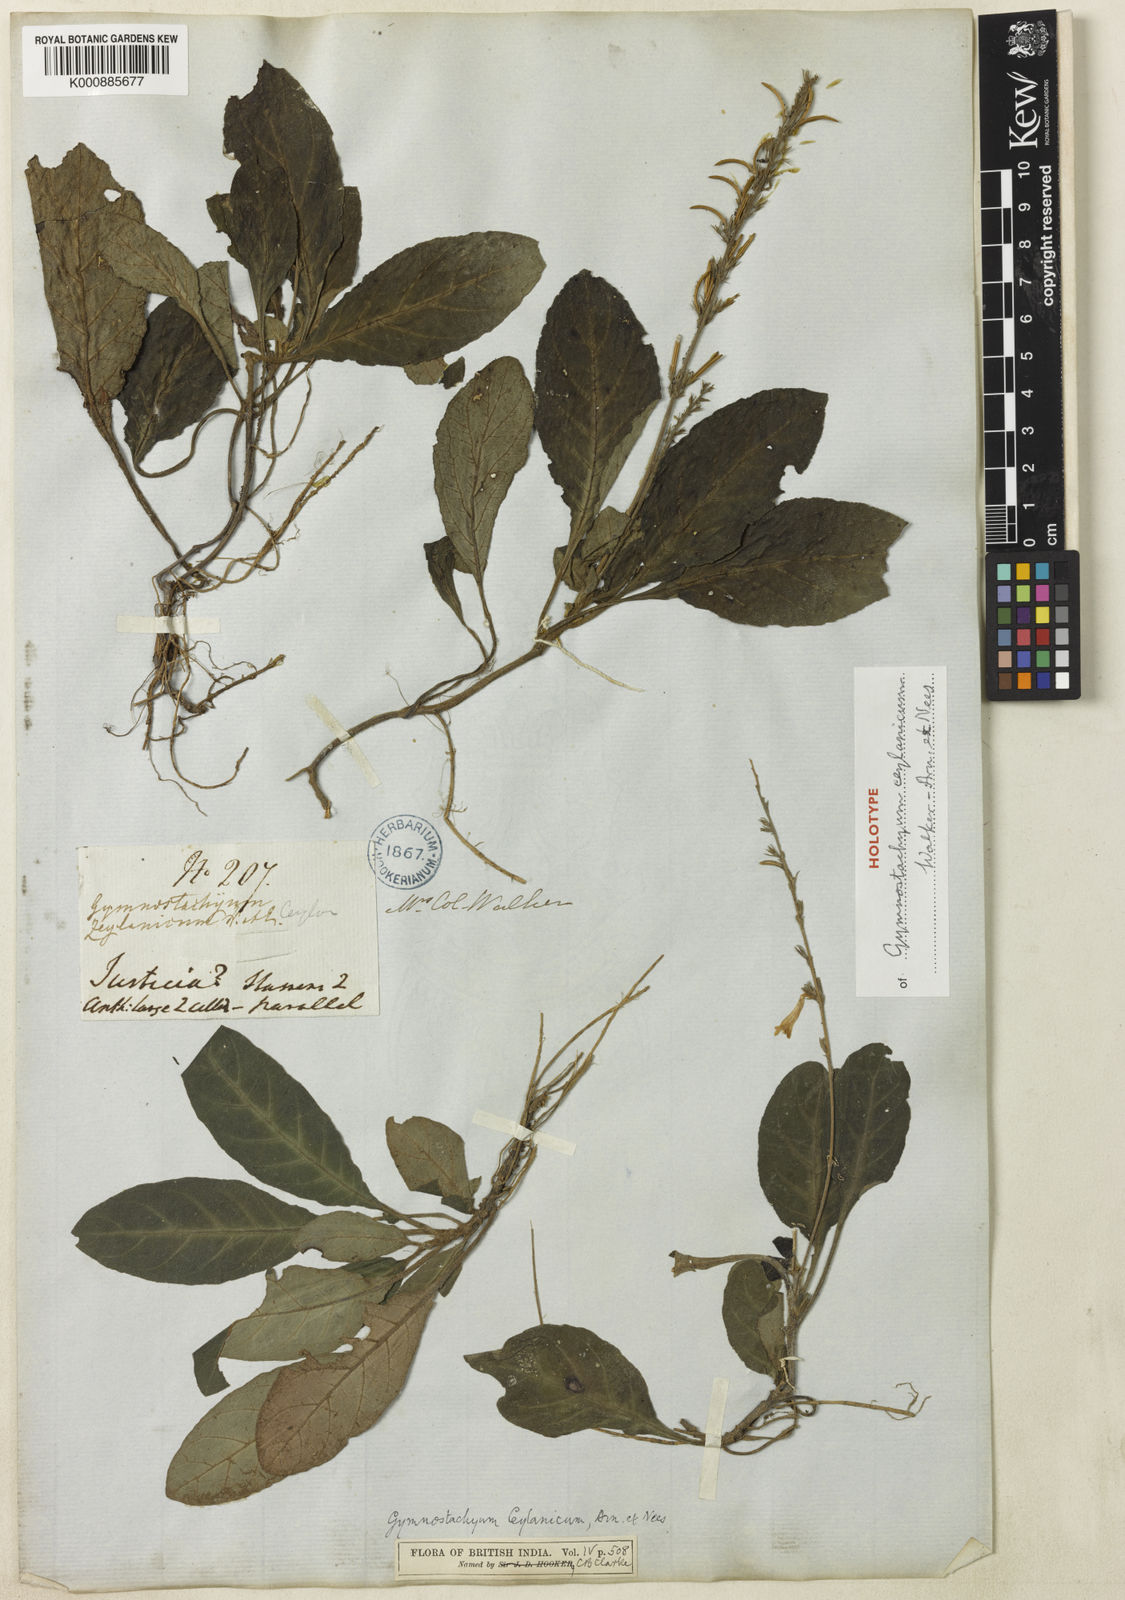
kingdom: Plantae
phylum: Tracheophyta
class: Magnoliopsida
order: Lamiales
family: Acanthaceae
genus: Gymnostachyum
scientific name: Gymnostachyum ceylanicum
